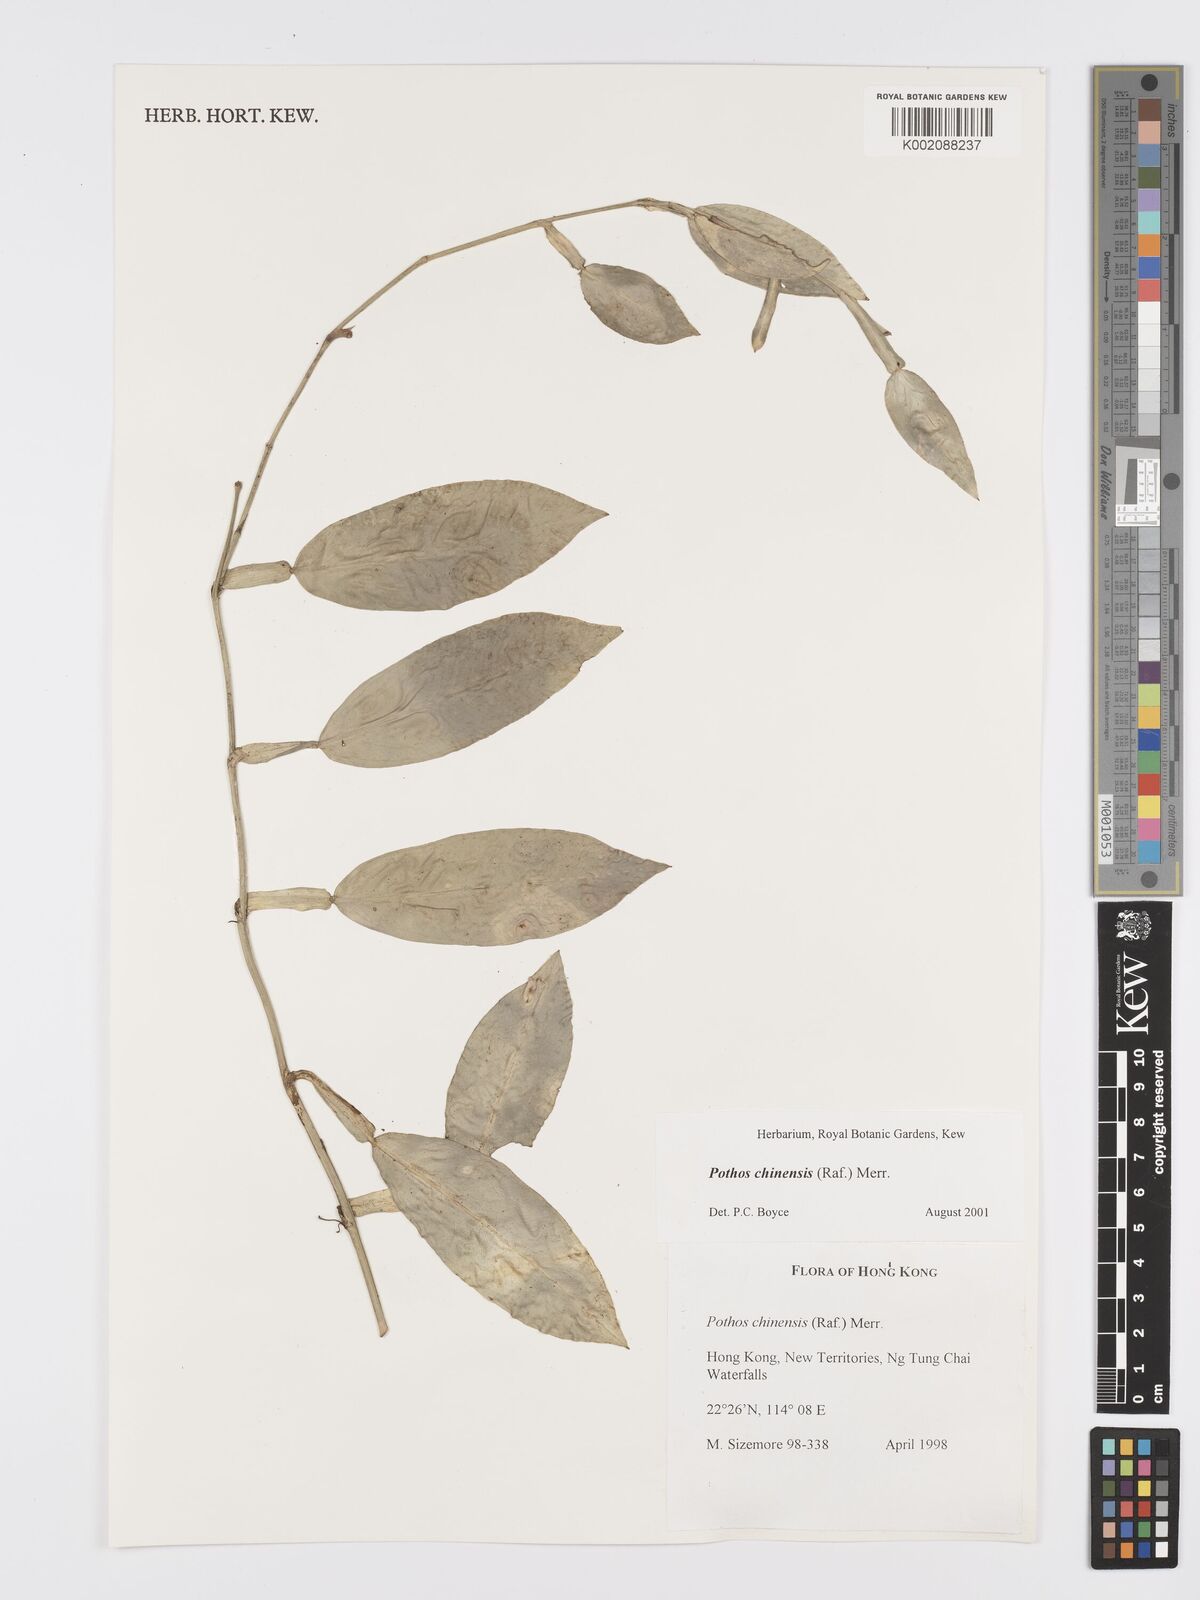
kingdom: Plantae
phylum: Tracheophyta
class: Liliopsida
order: Alismatales
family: Araceae
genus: Pothos
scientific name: Pothos chinensis
